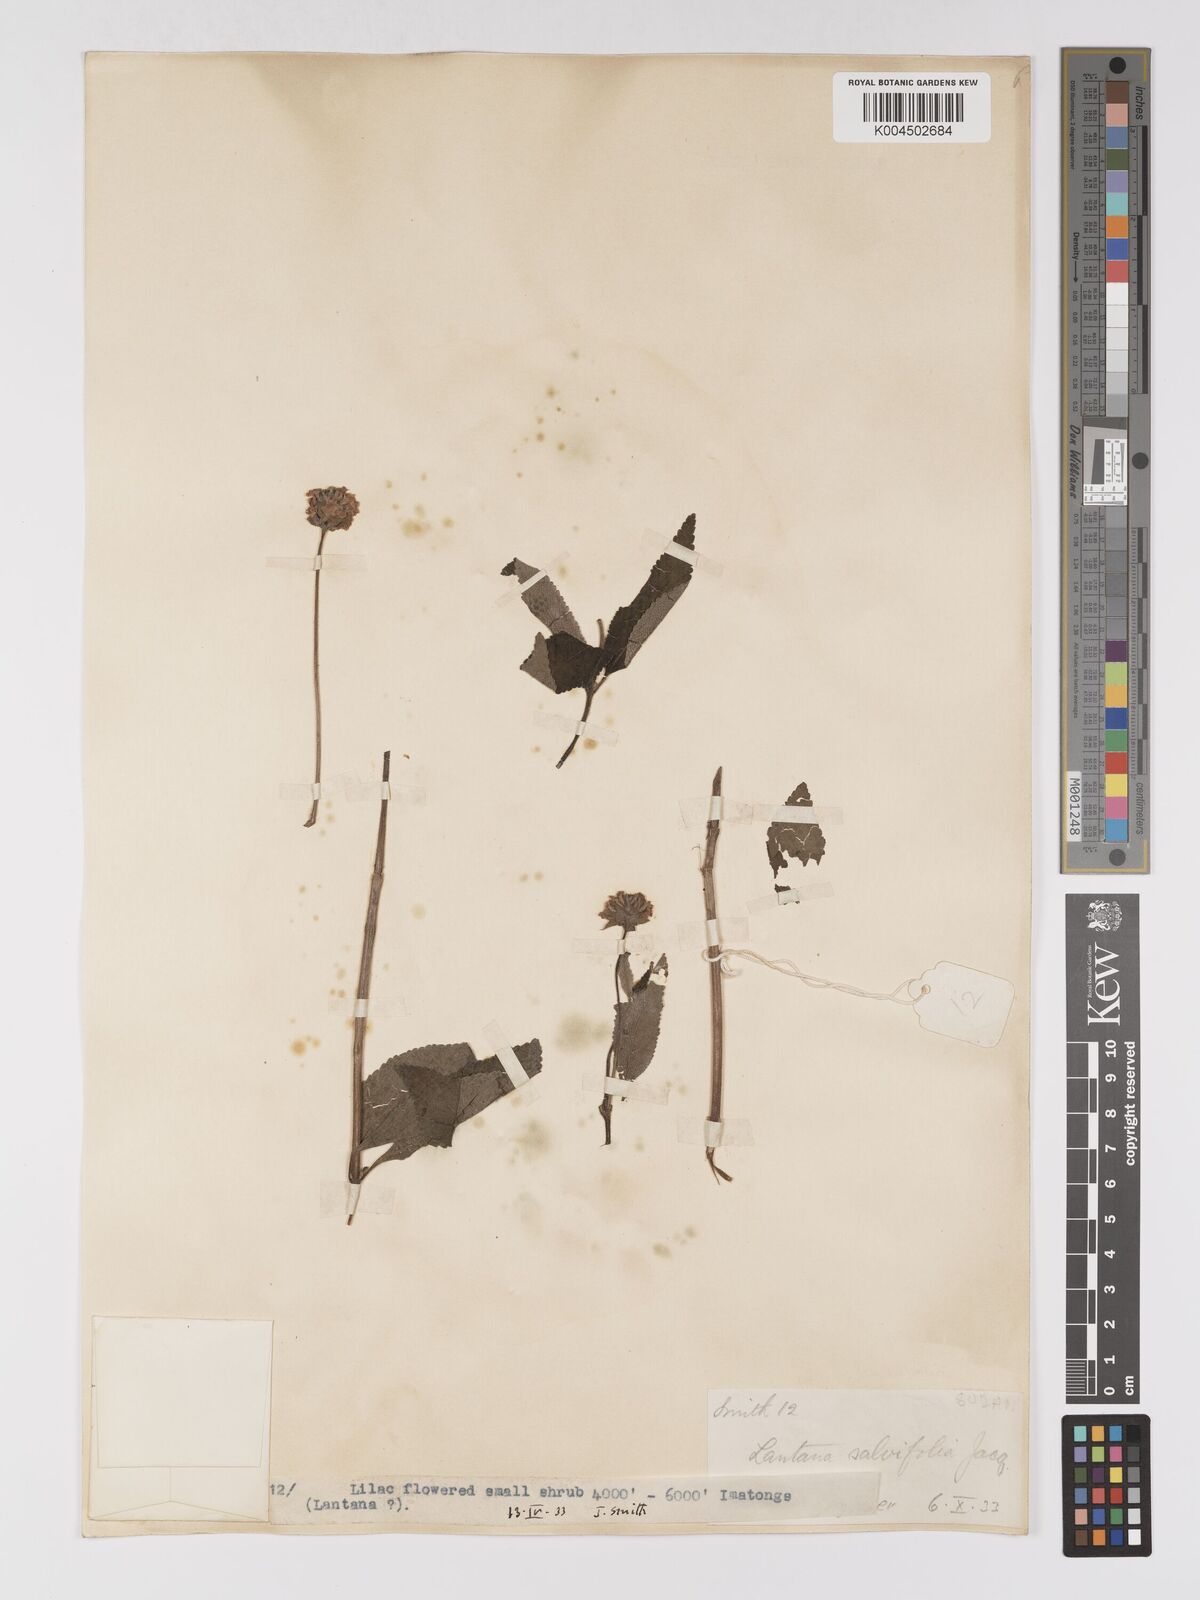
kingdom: Plantae
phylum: Tracheophyta
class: Magnoliopsida
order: Lamiales
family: Verbenaceae
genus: Lantana
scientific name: Lantana trifolia
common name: Sweet-sage
